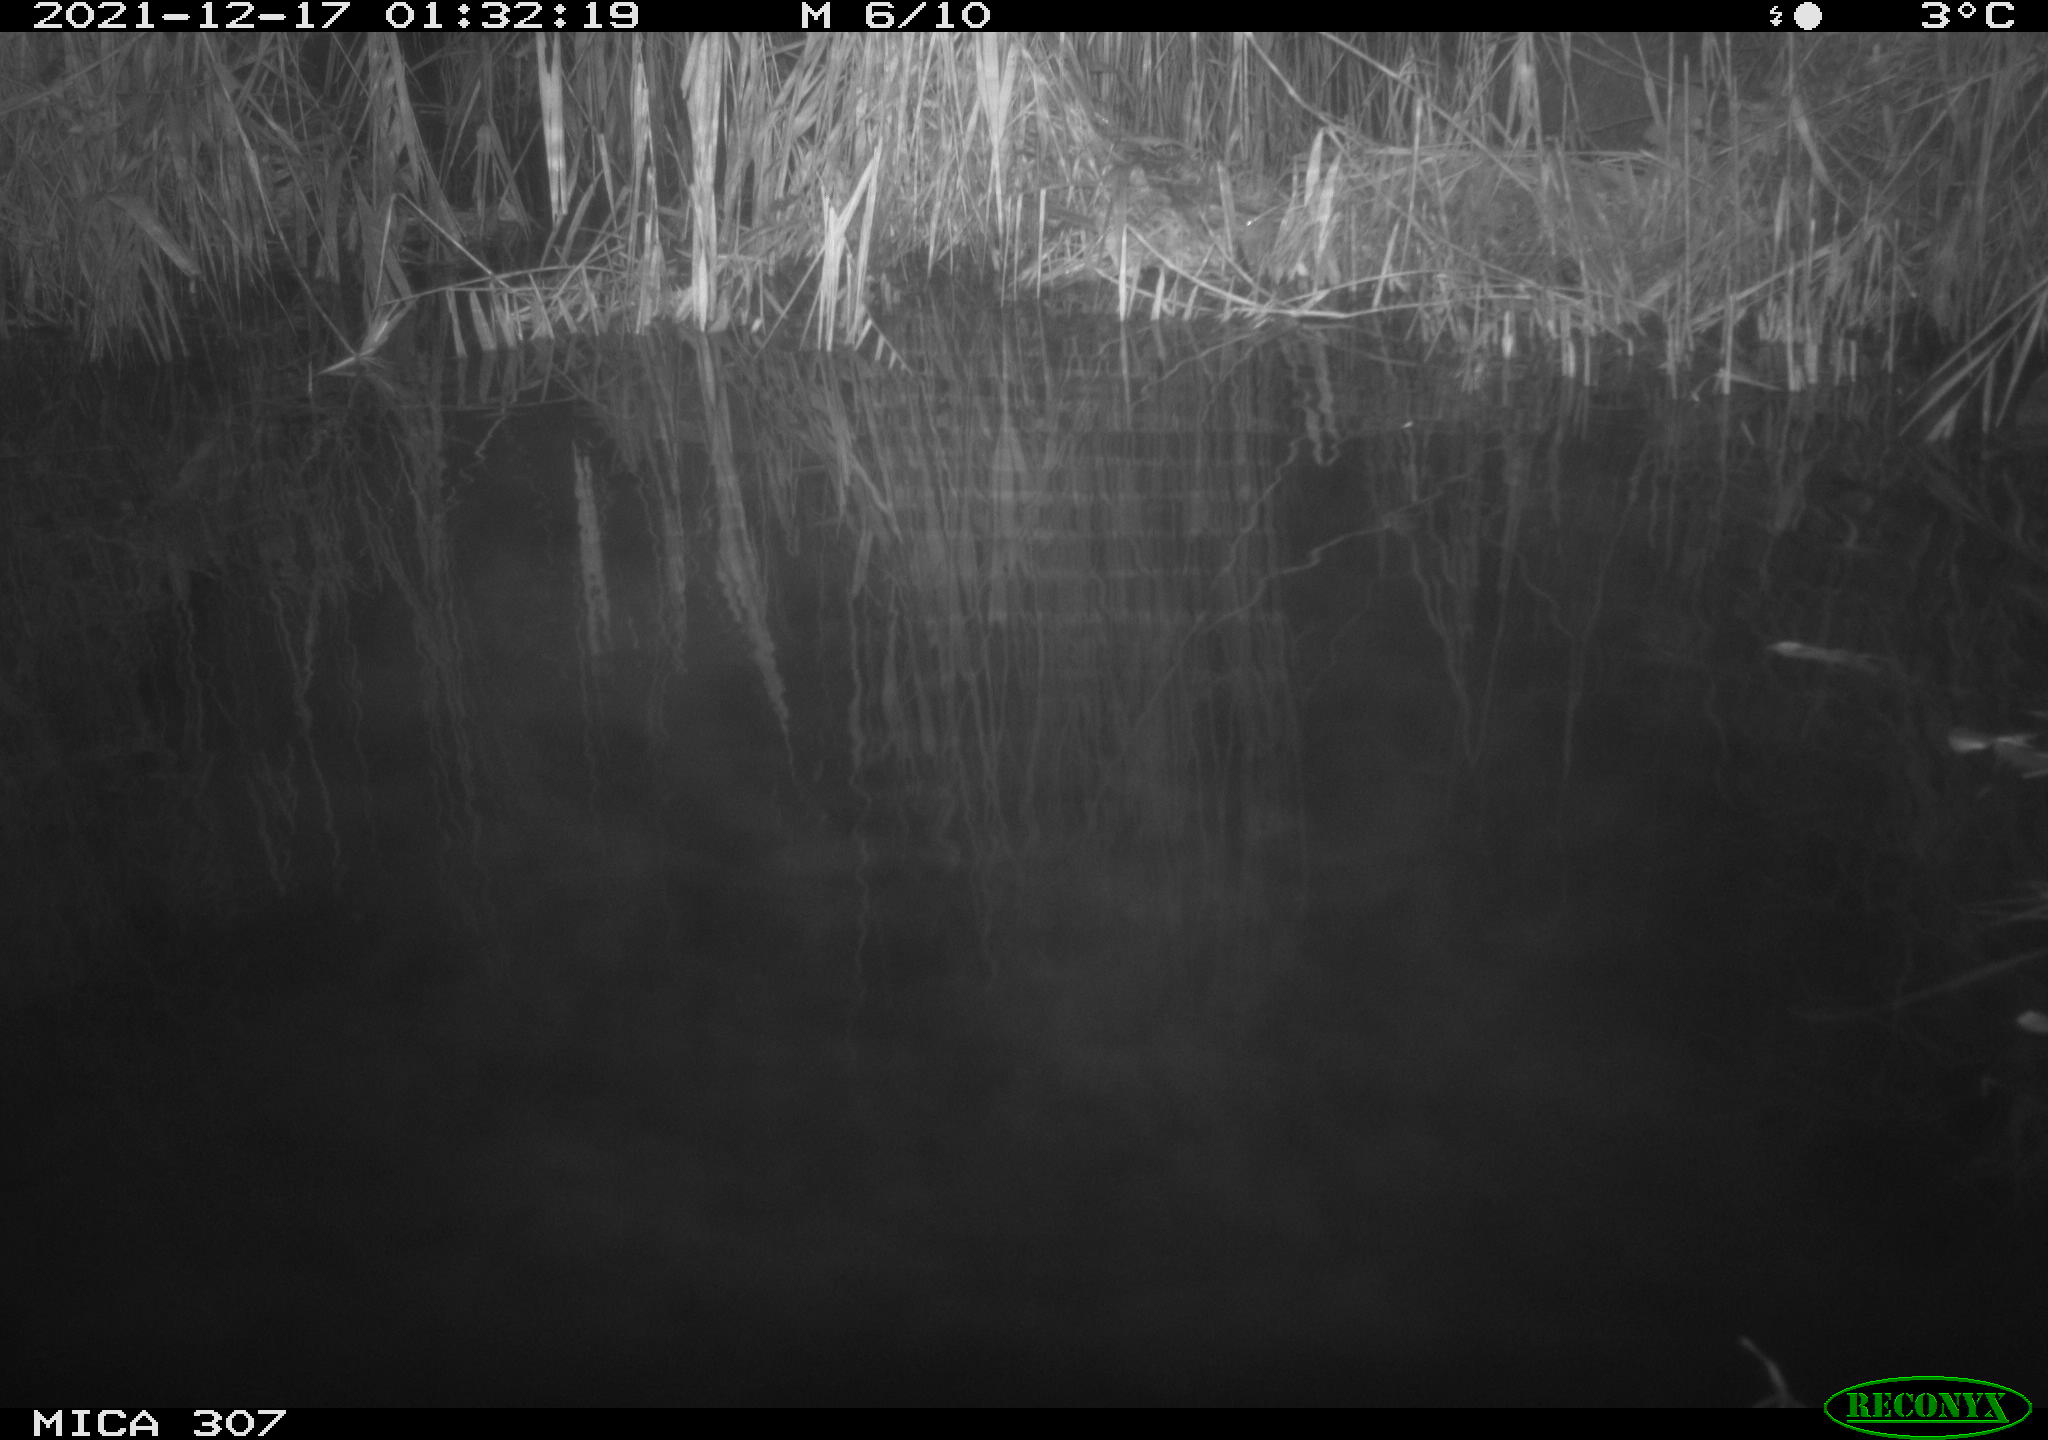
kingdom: Animalia
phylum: Chordata
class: Mammalia
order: Rodentia
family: Muridae
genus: Rattus
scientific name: Rattus norvegicus
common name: Brown rat
